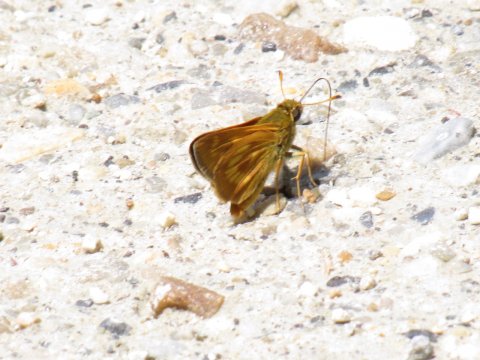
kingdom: Animalia
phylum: Arthropoda
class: Insecta
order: Lepidoptera
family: Hesperiidae
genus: Polites
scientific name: Polites
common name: Long Dash Skipper
